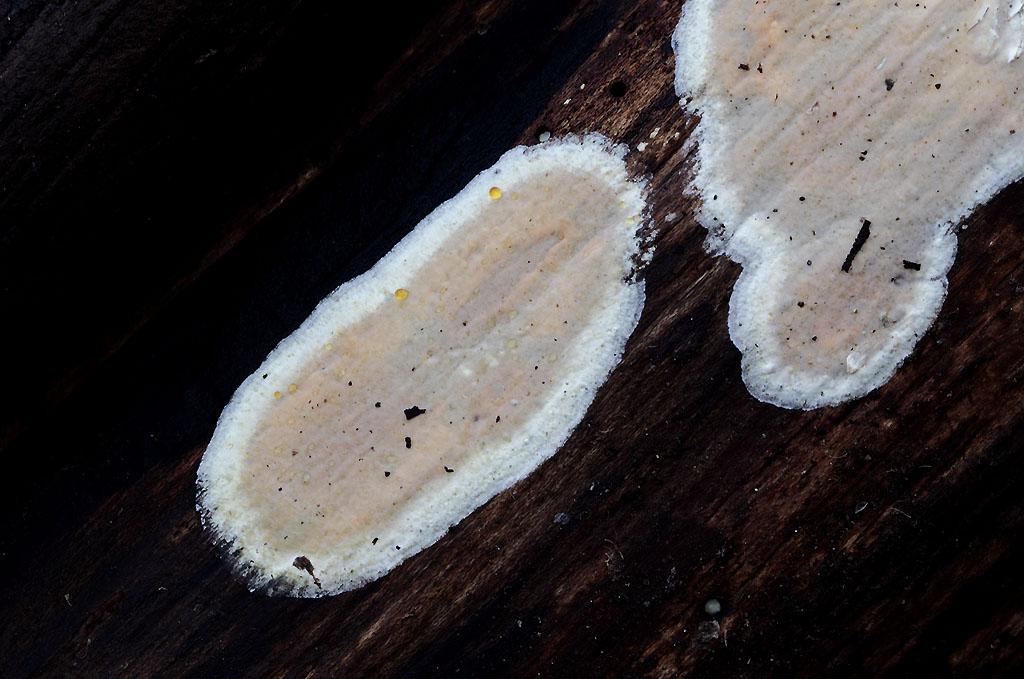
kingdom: Fungi
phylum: Basidiomycota
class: Agaricomycetes
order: Russulales
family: Peniophoraceae
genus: Scytinostroma
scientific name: Scytinostroma hemidichophyticum
